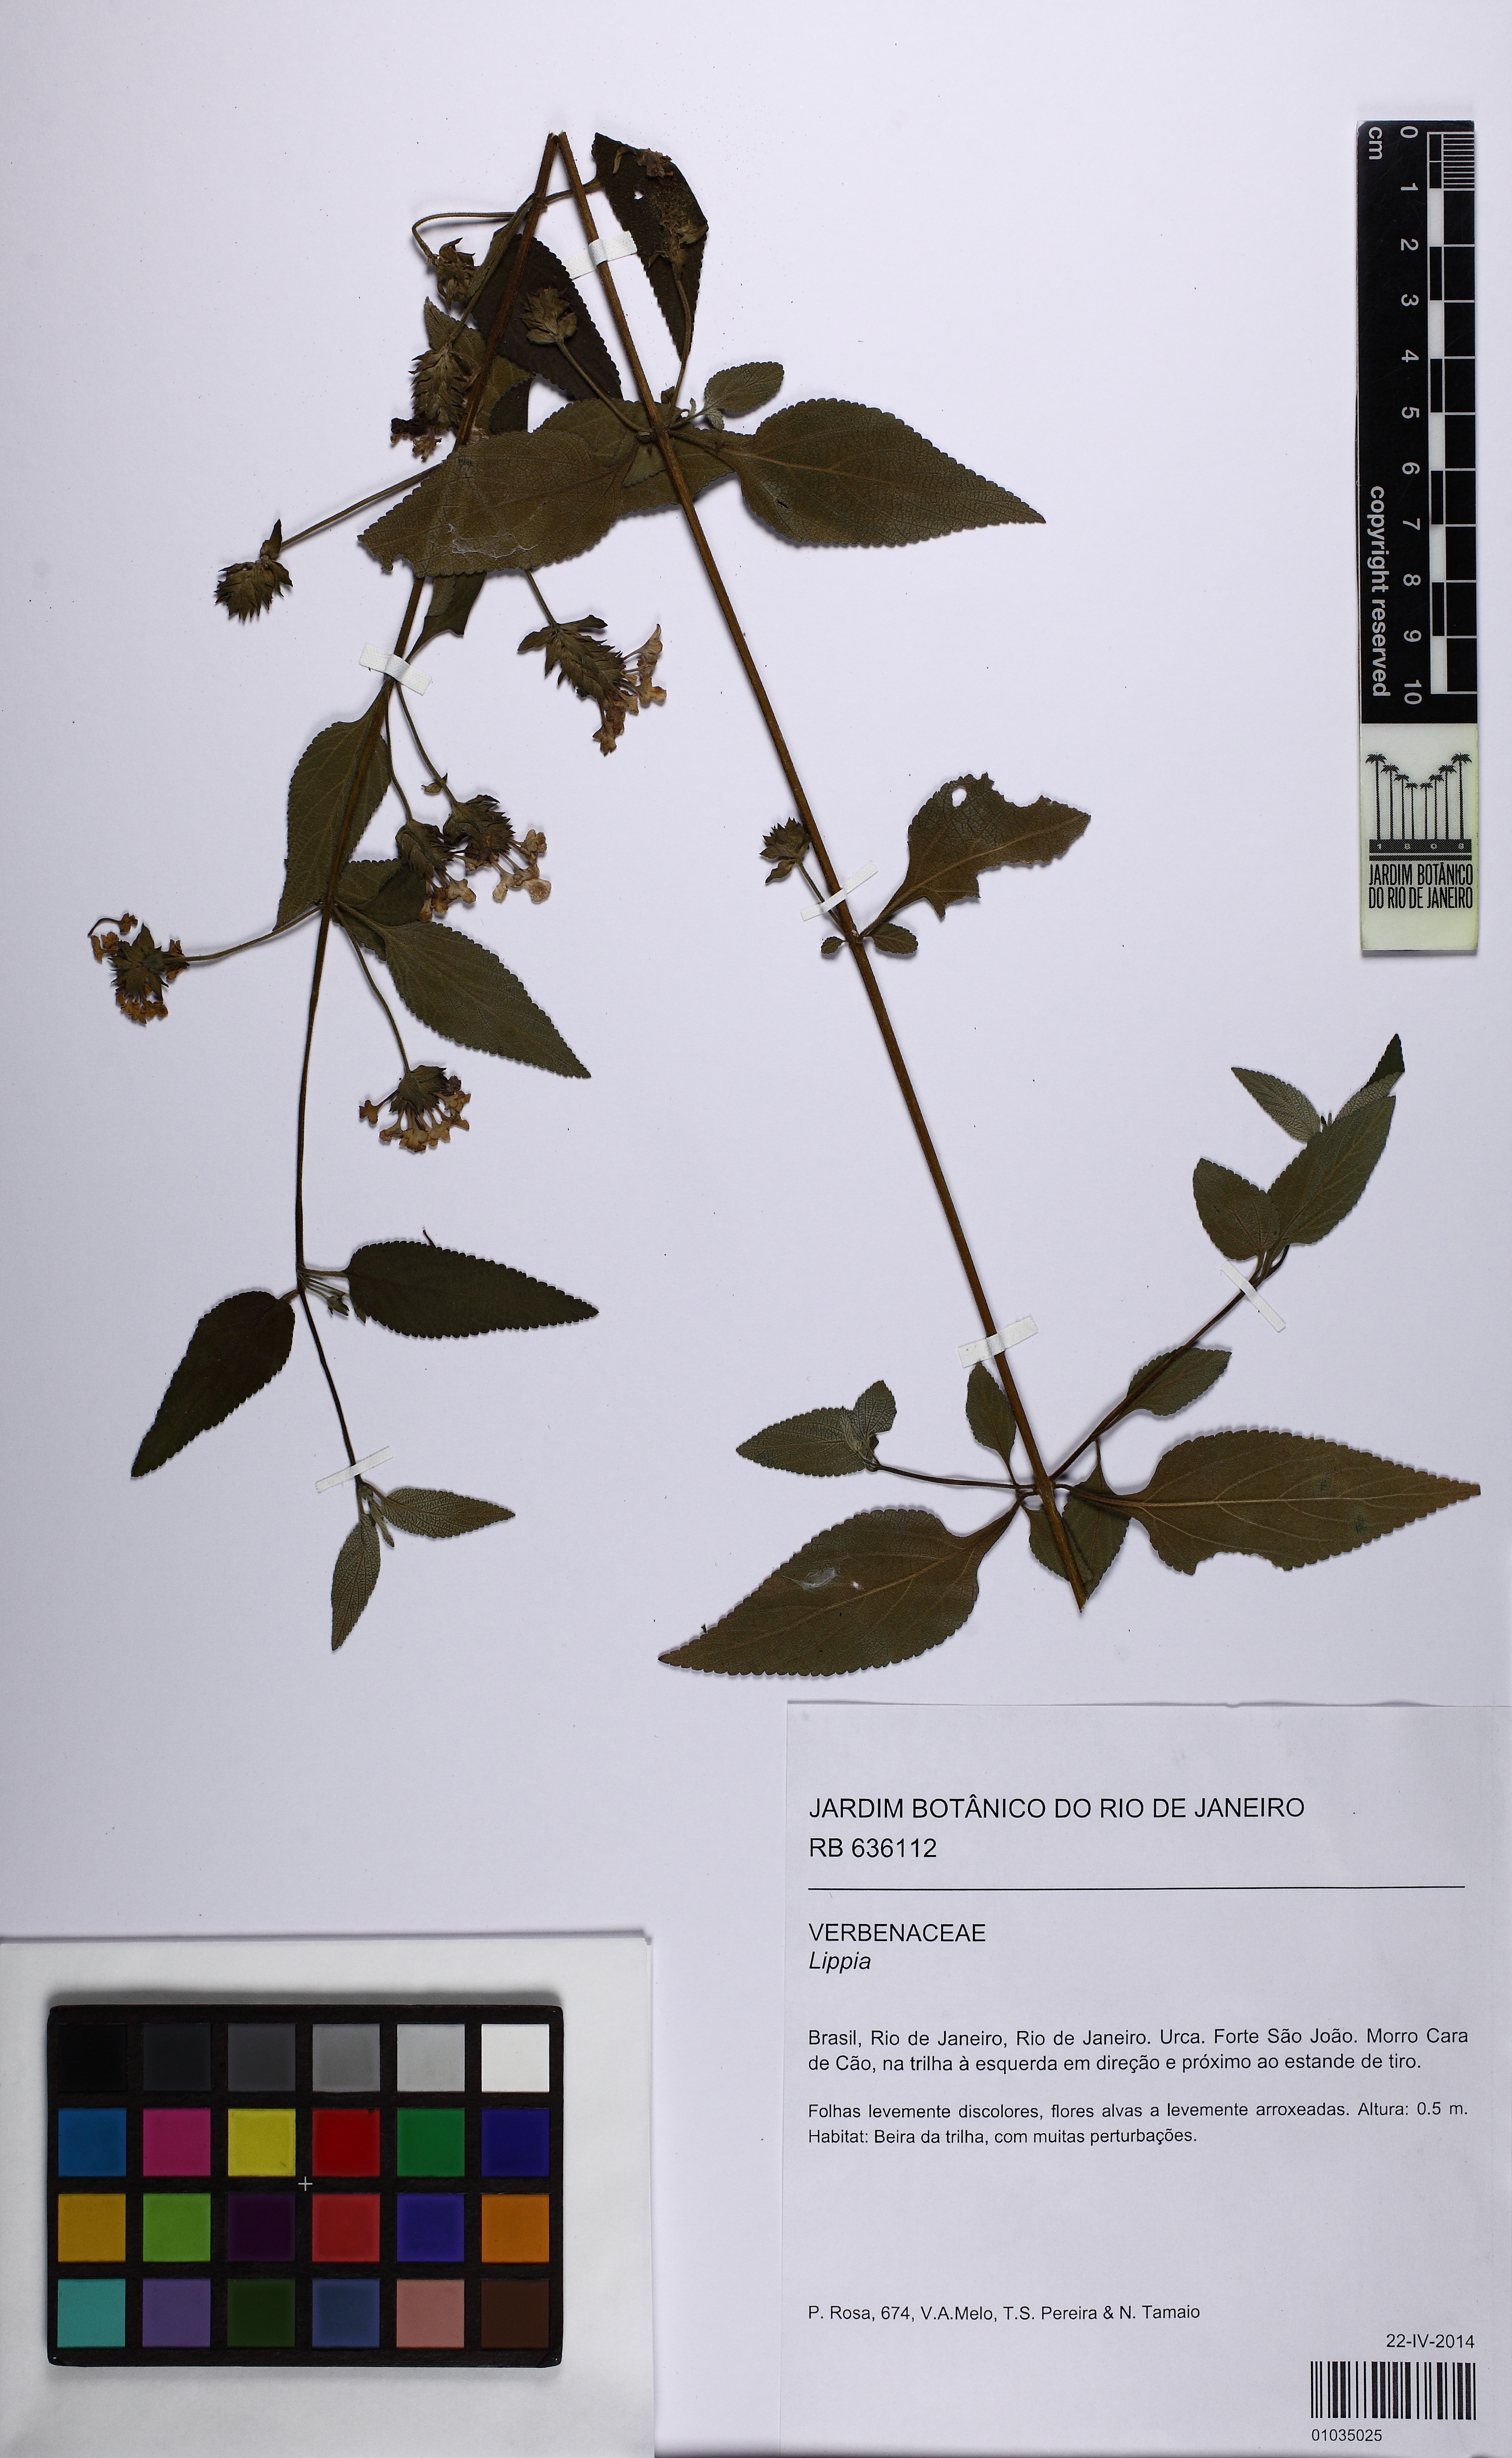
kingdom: Plantae
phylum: Tracheophyta
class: Magnoliopsida
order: Lamiales
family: Verbenaceae
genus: Lippia
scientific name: Lippia
